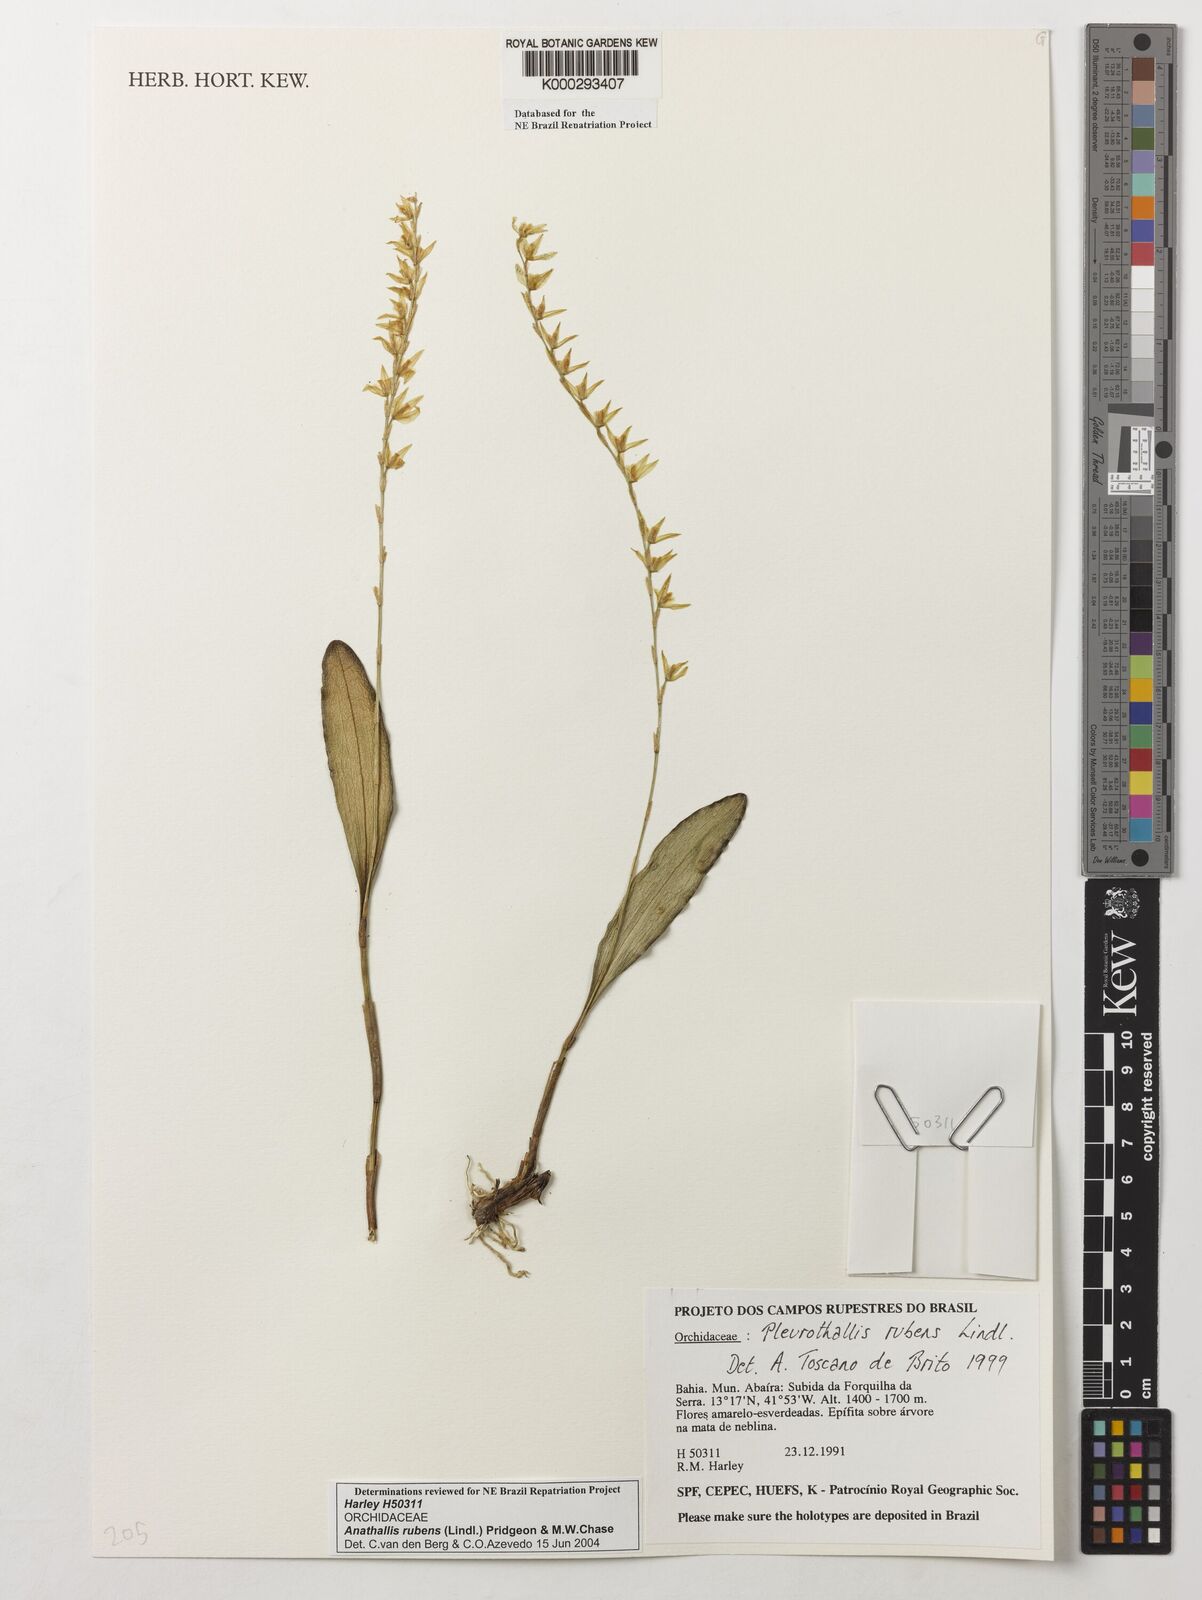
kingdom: Plantae
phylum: Tracheophyta
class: Liliopsida
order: Asparagales
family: Orchidaceae
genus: Stelis
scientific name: Stelis montserratii
